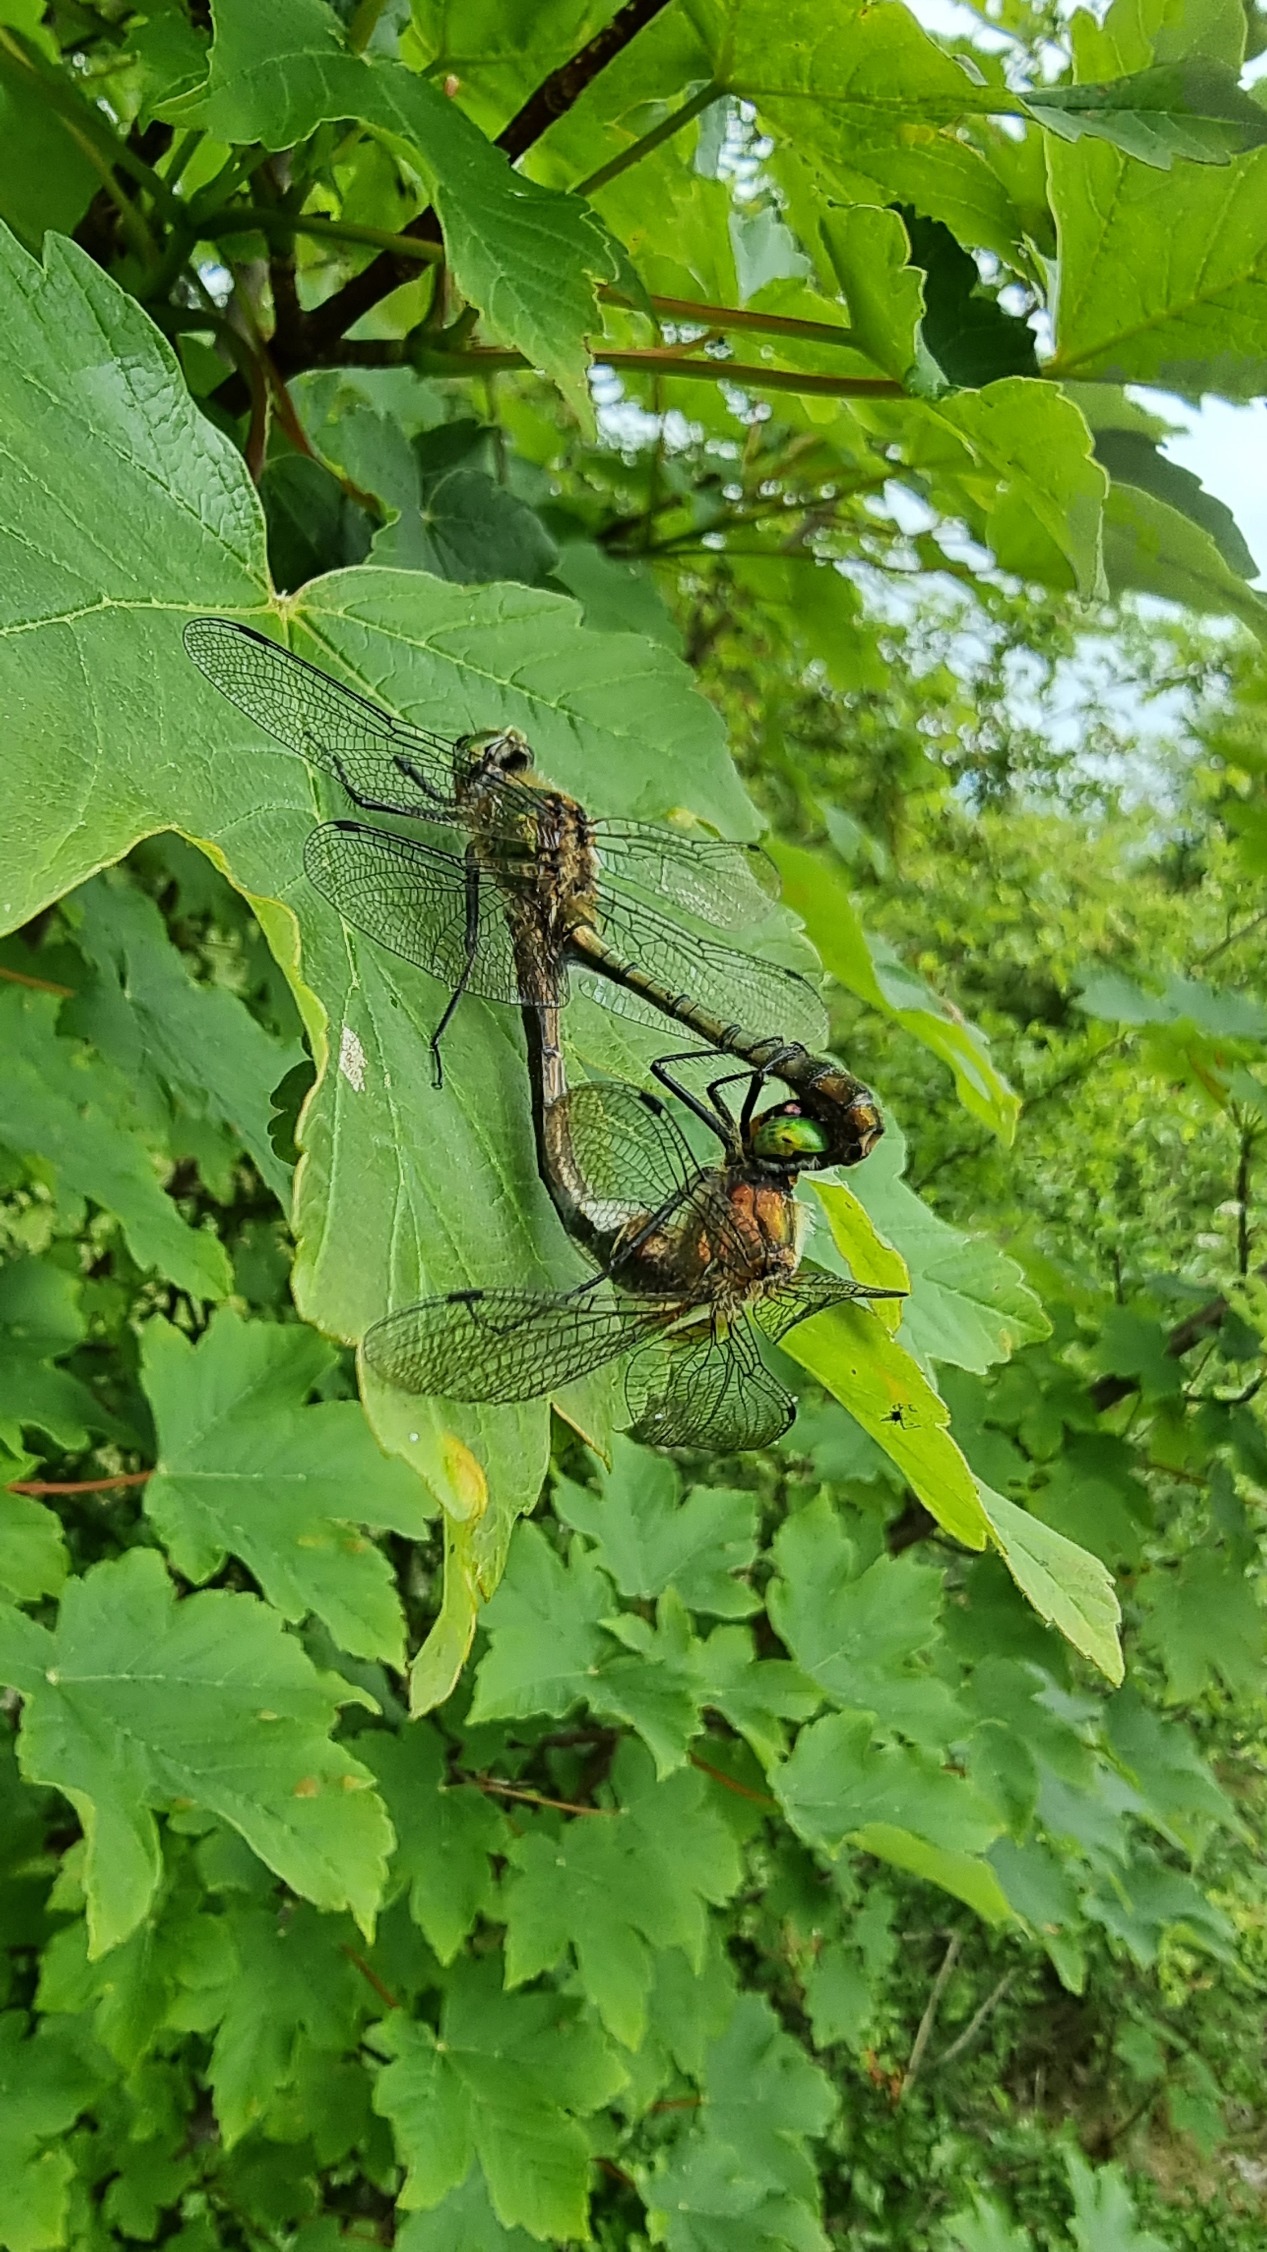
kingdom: Animalia
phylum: Arthropoda
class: Insecta
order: Odonata
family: Corduliidae
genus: Cordulia
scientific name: Cordulia aenea
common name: Grøn smaragdlibel
